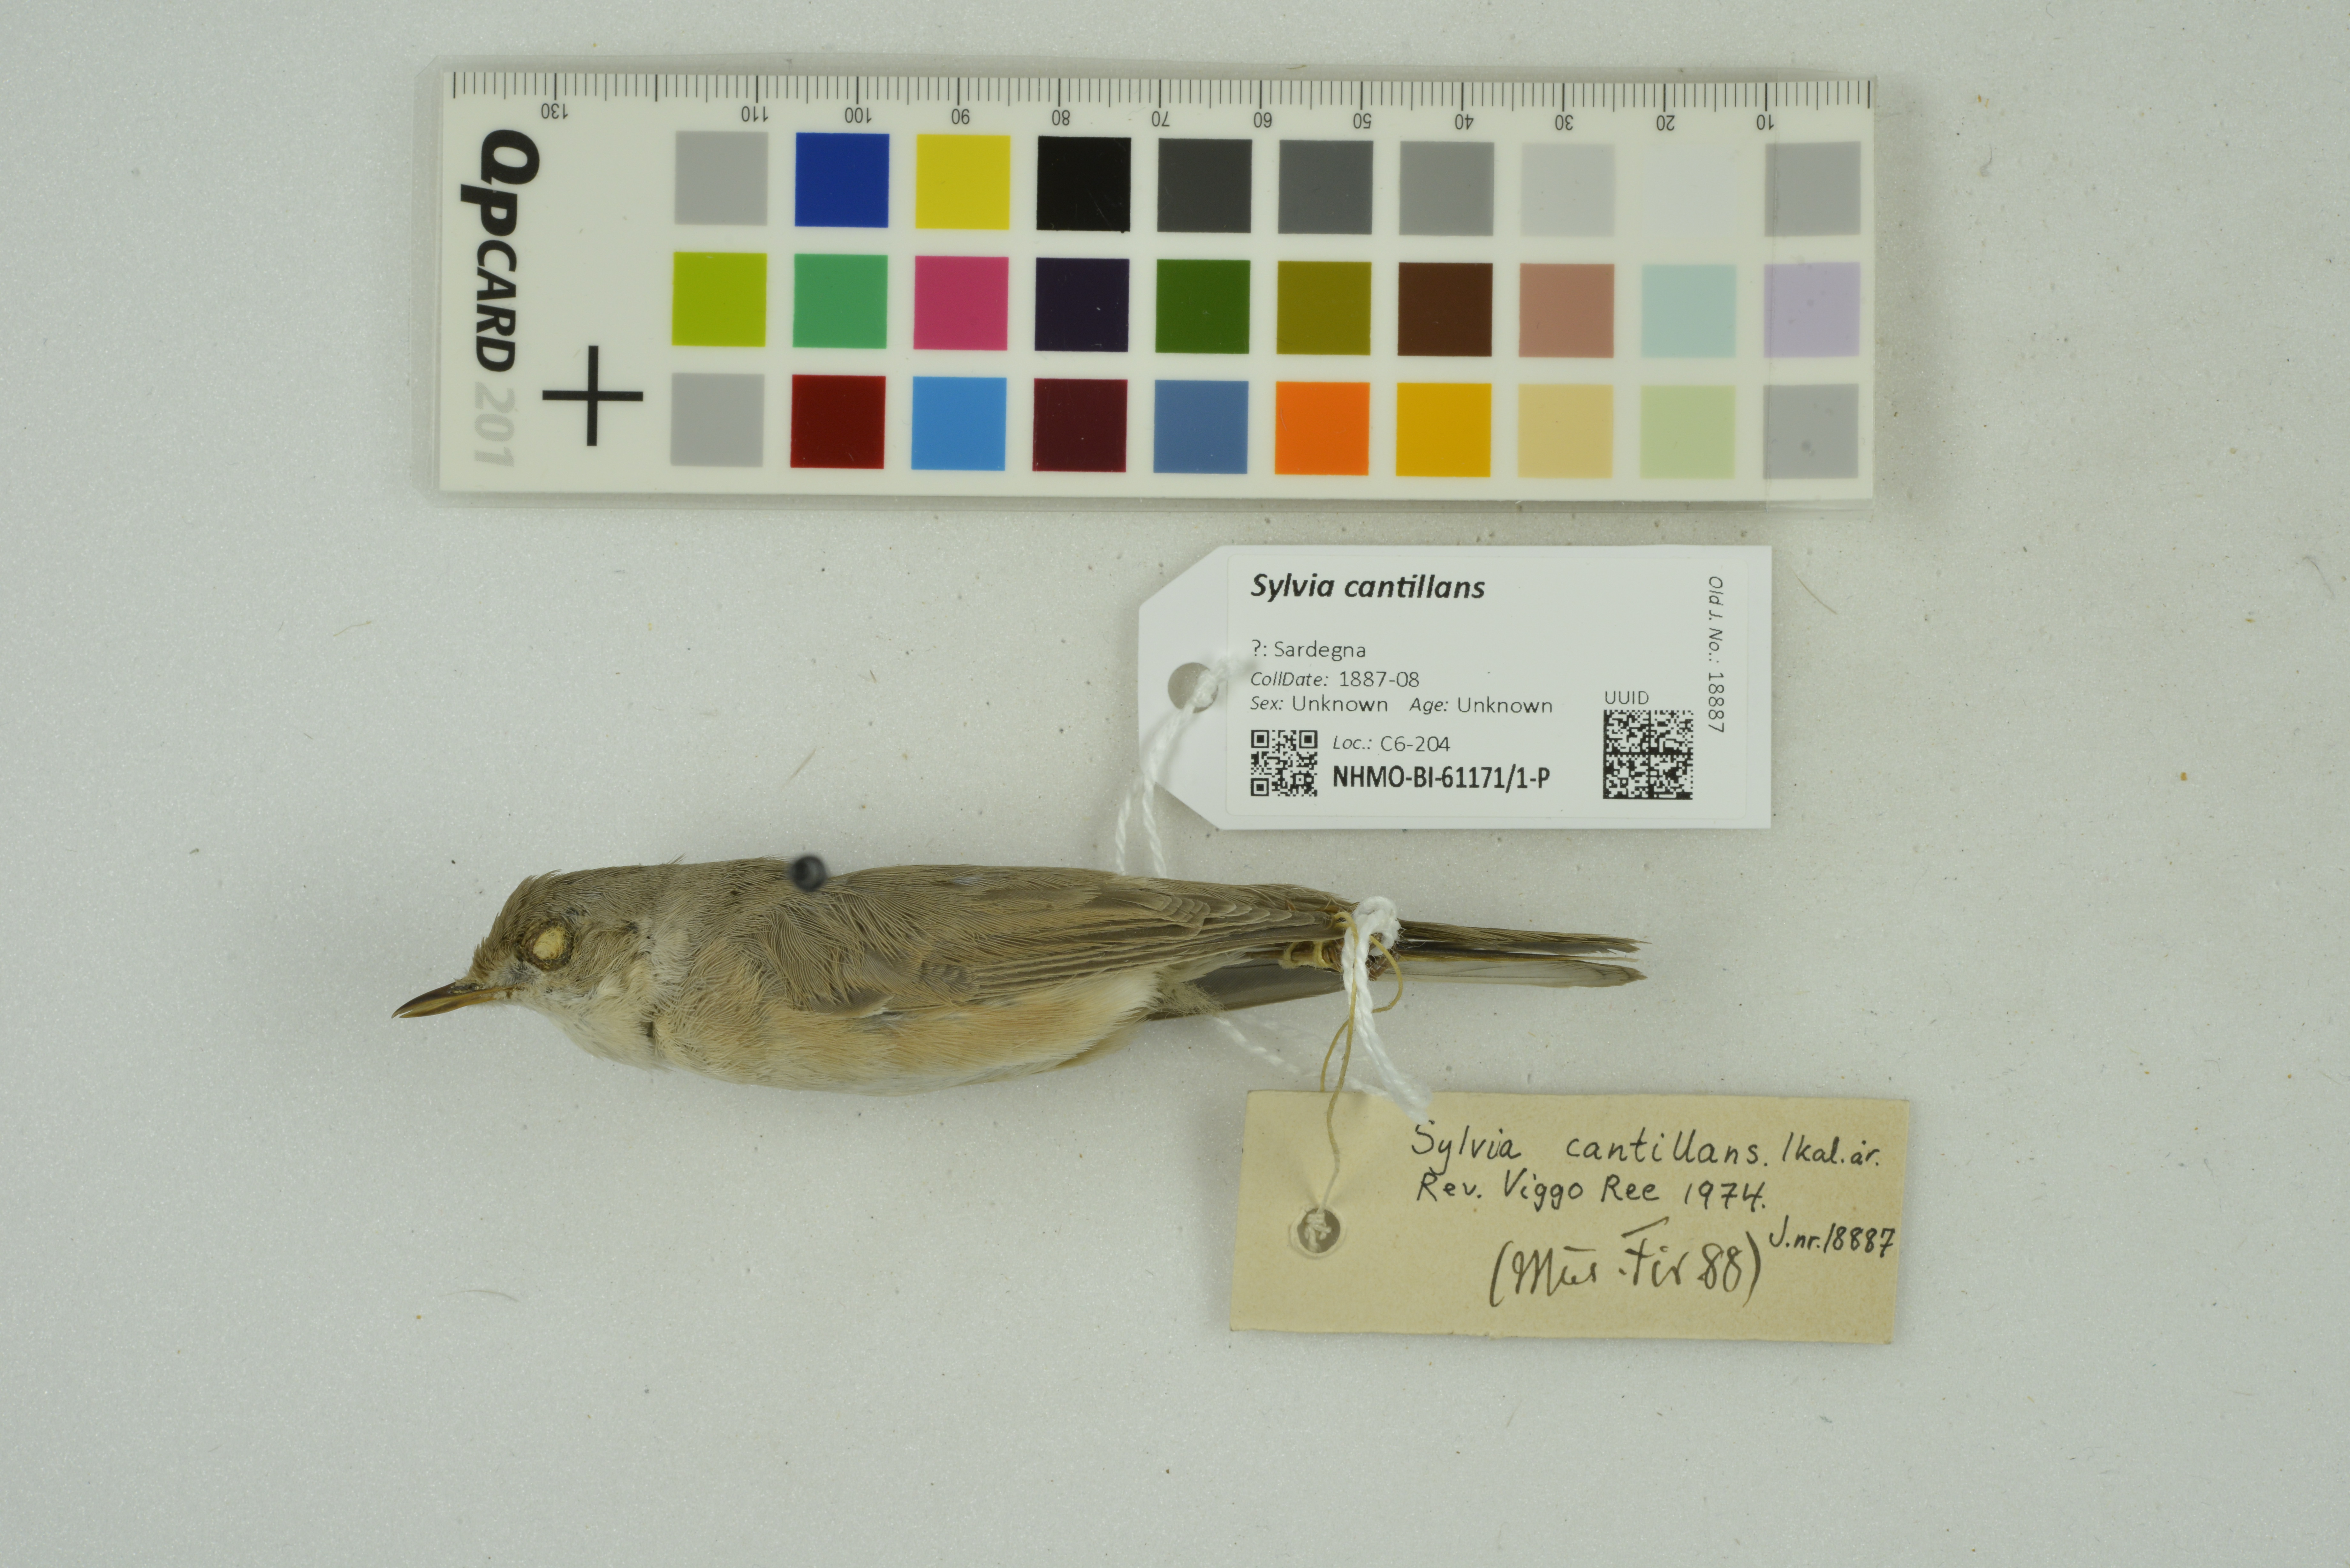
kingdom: Animalia
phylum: Chordata
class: Aves
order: Passeriformes
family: Sylviidae
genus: Curruca
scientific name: Curruca cantillans
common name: Subalpine warbler
